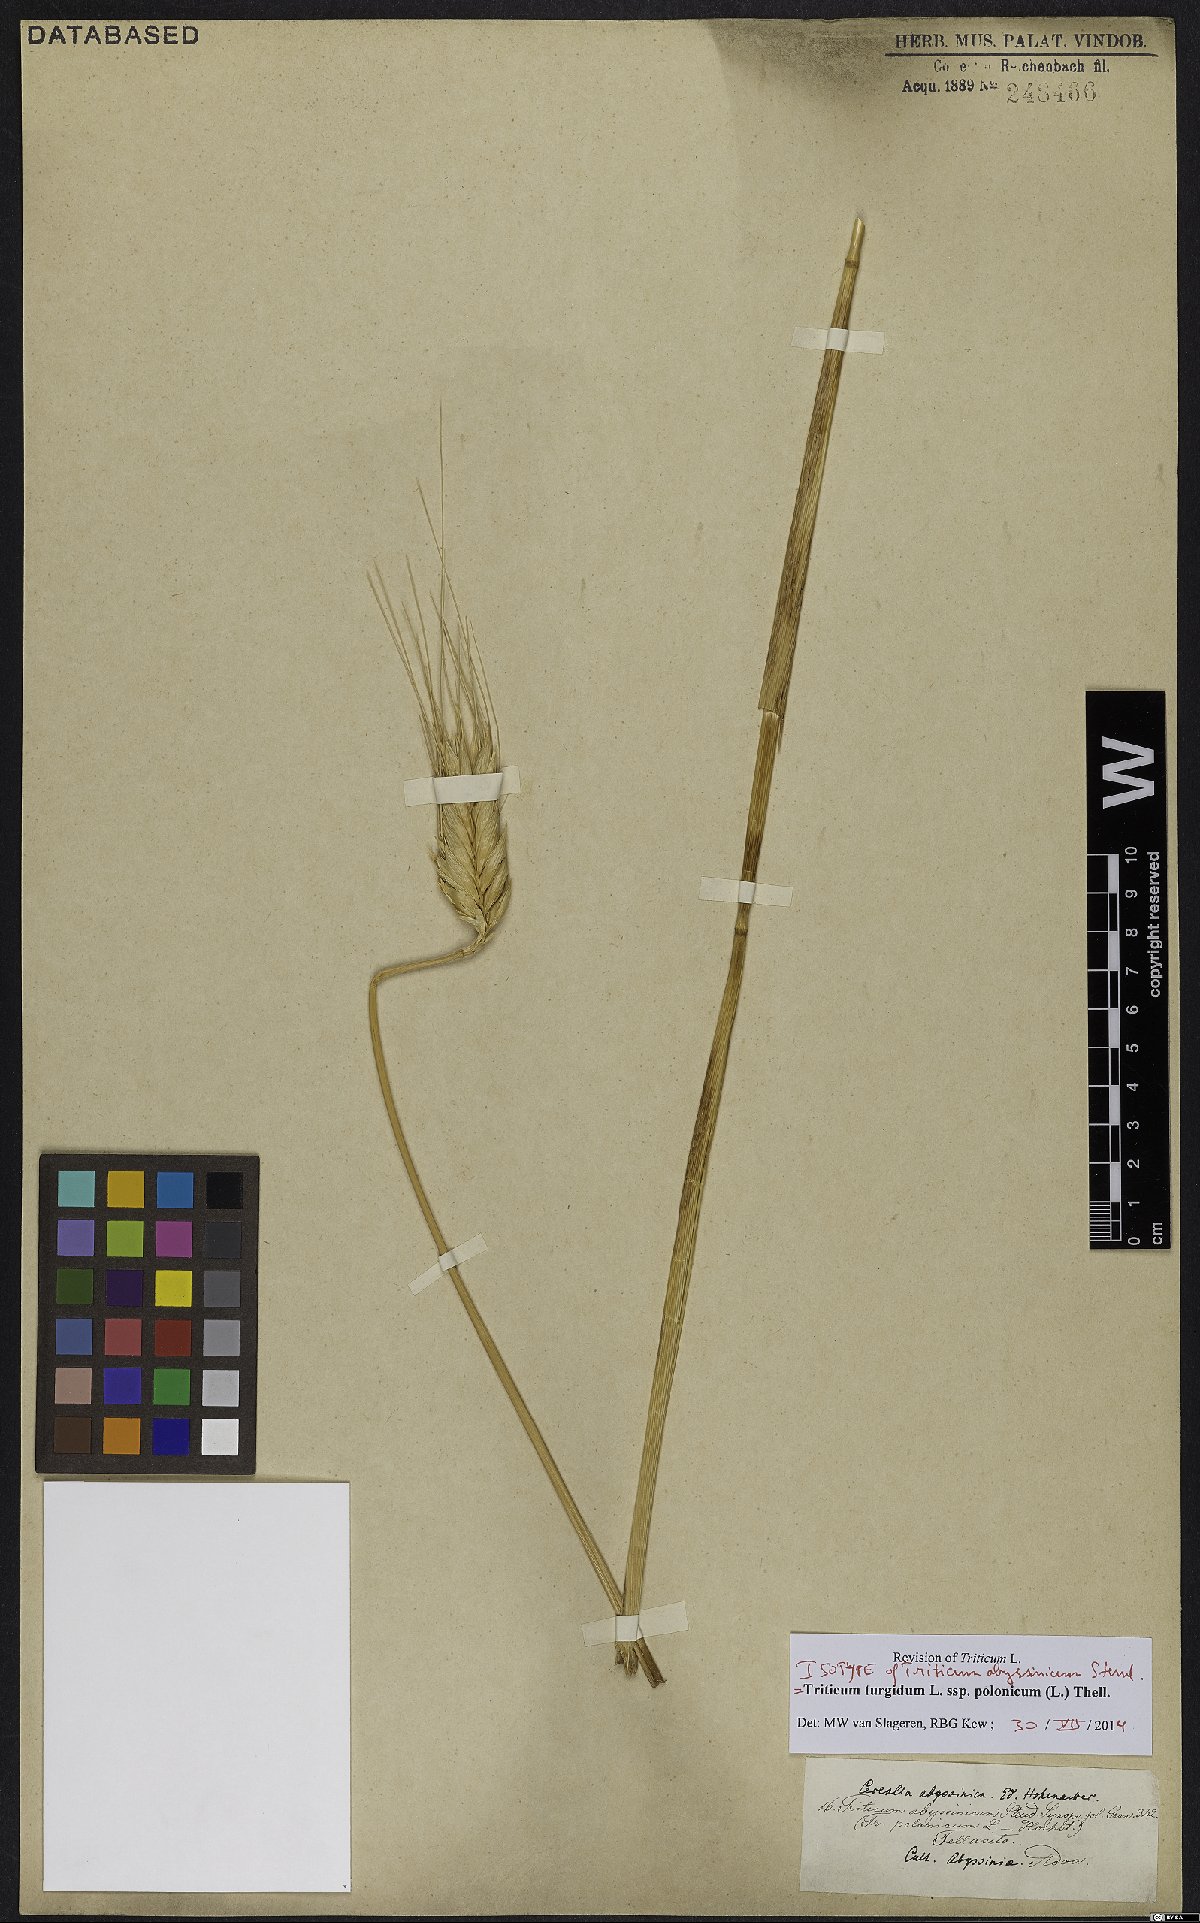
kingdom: Plantae
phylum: Tracheophyta
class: Liliopsida
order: Poales
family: Poaceae
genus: Triticum
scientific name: Triticum turgidum
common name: Rivet wheat
